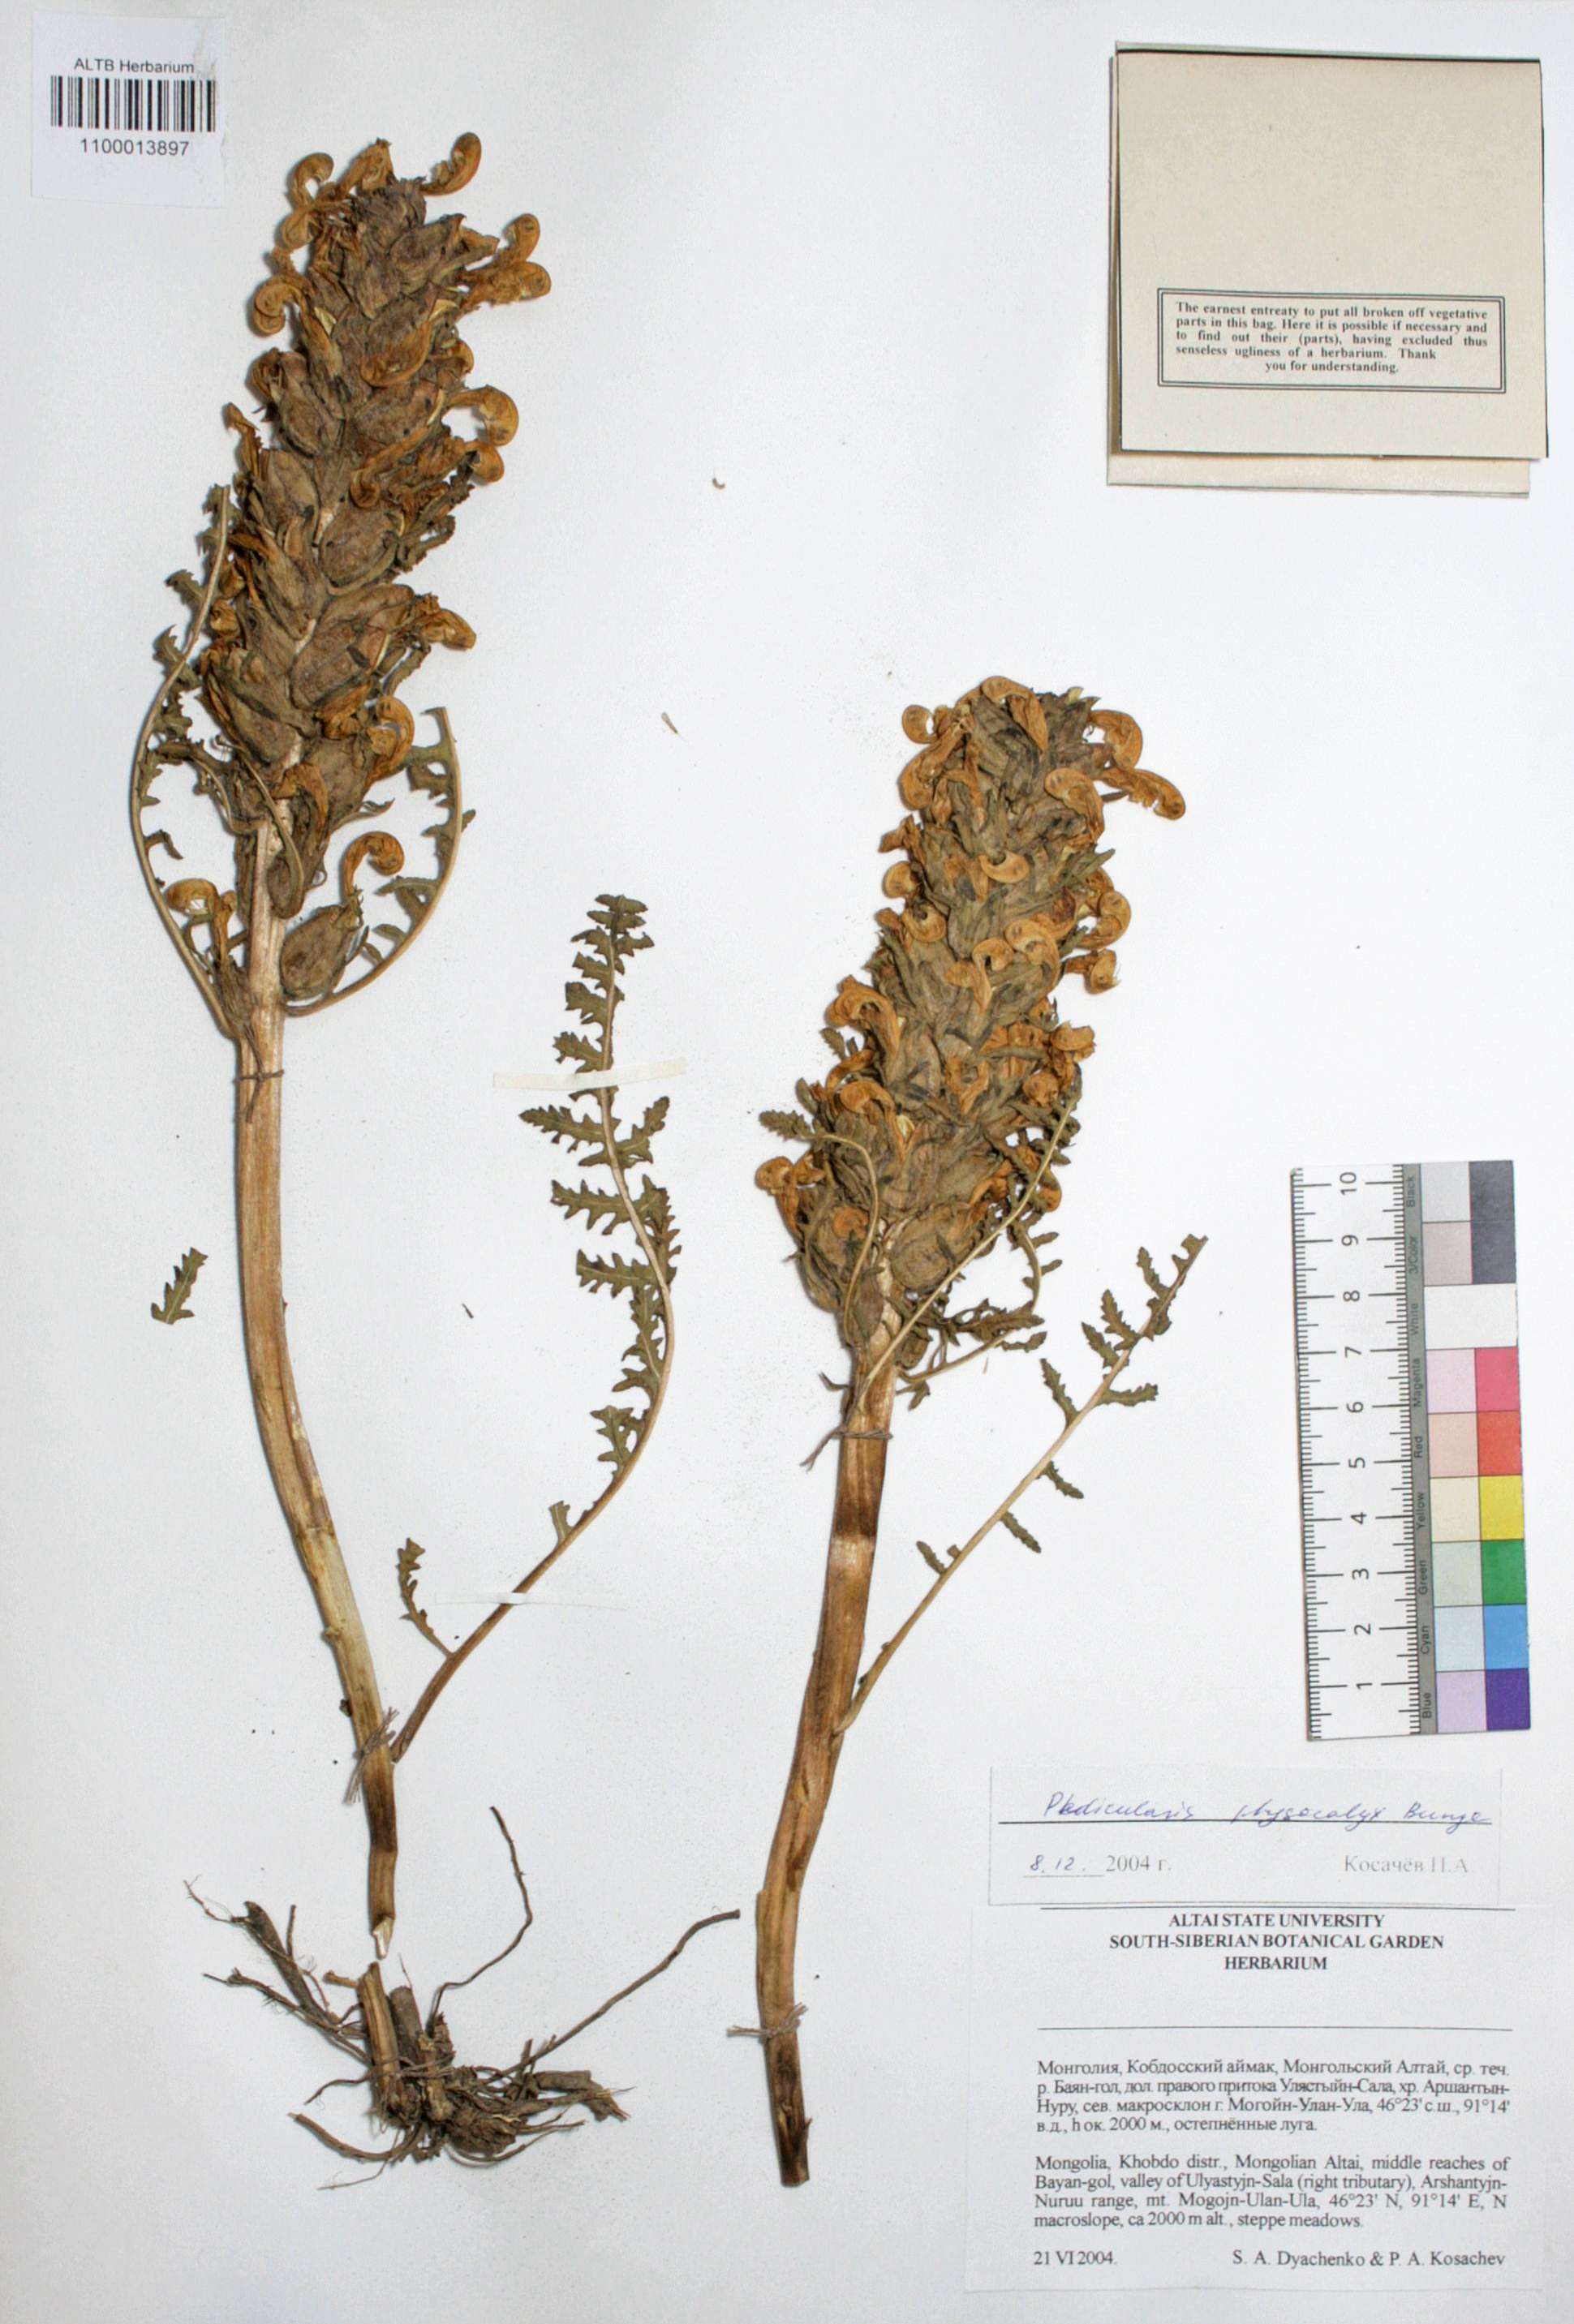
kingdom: Plantae
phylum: Tracheophyta
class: Magnoliopsida
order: Lamiales
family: Orobanchaceae
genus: Pedicularis
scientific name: Pedicularis physocalyx
